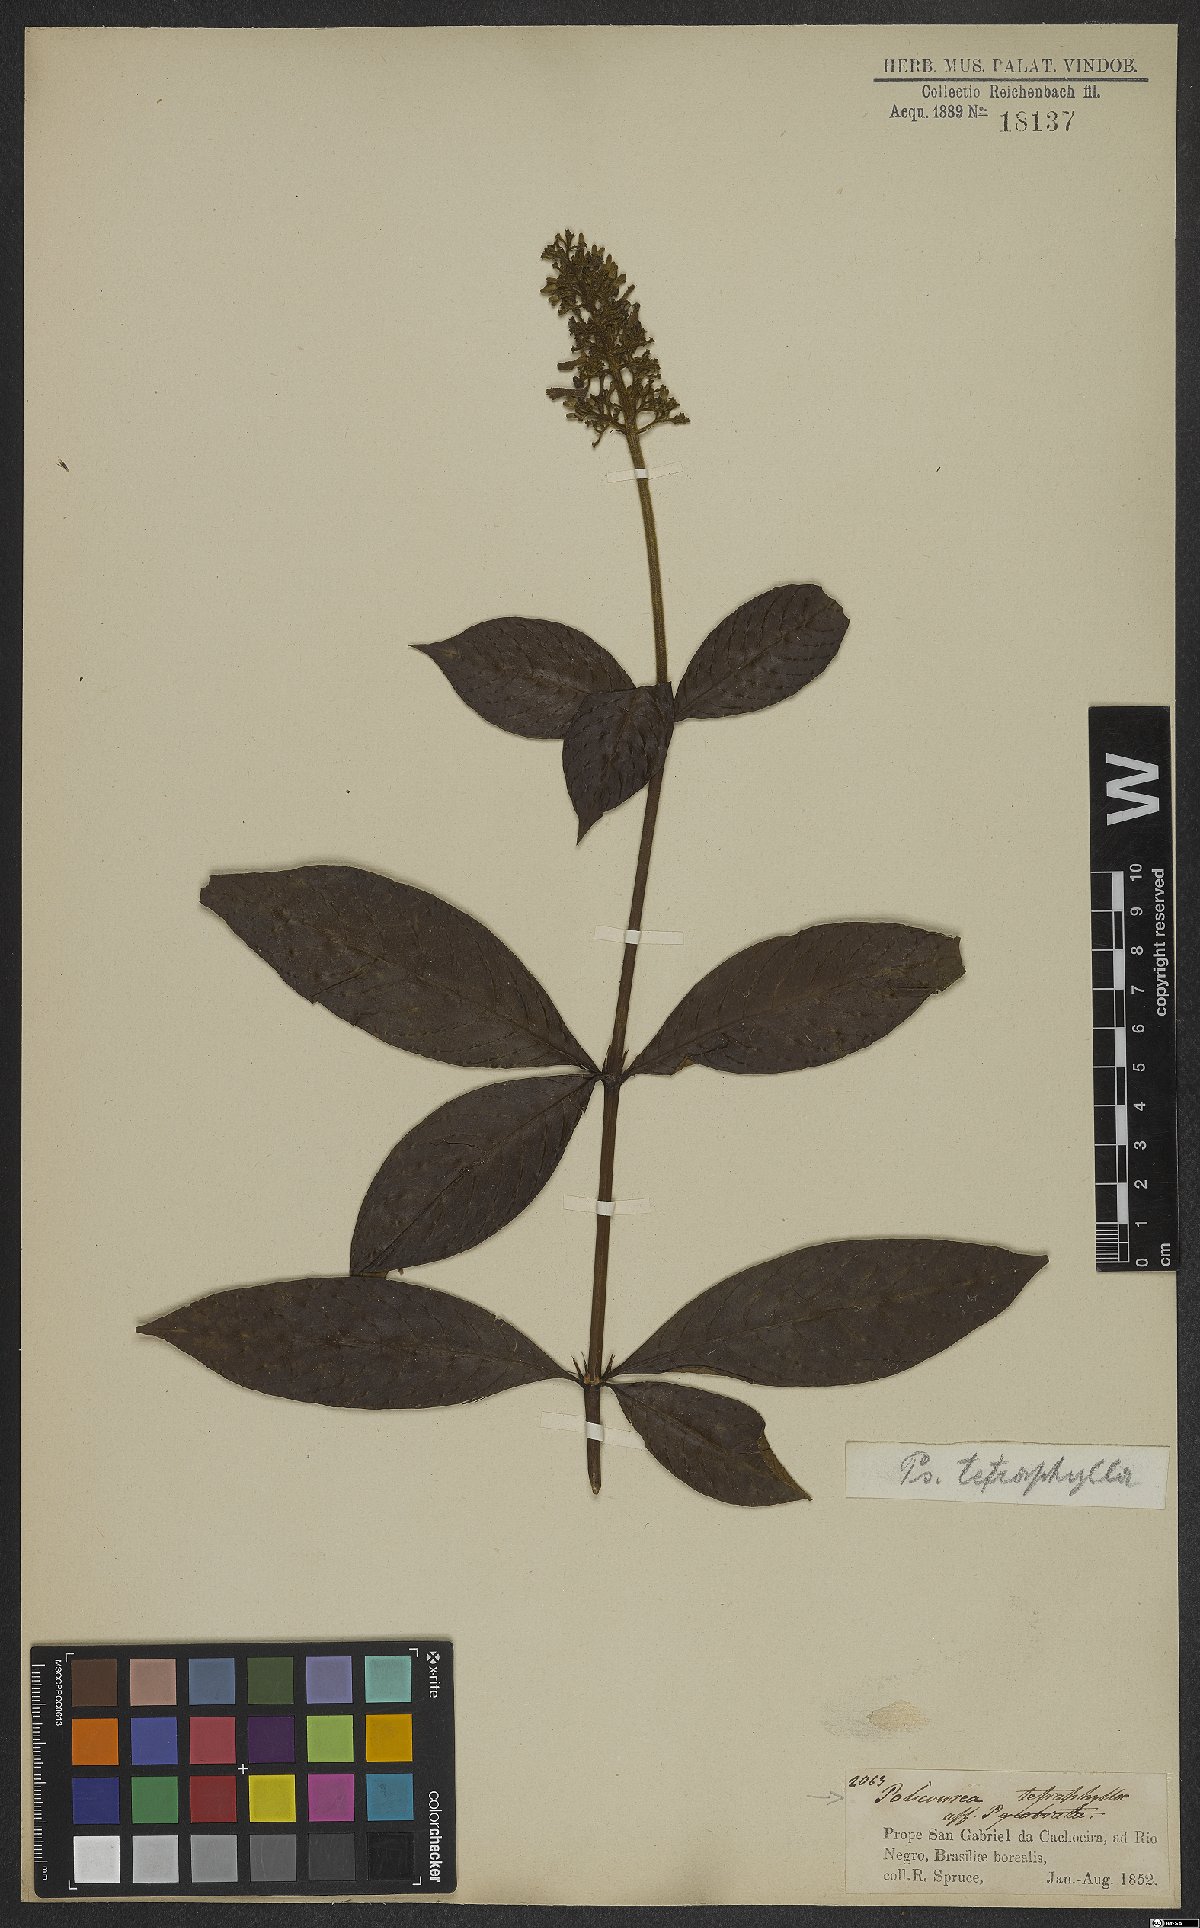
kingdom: Plantae
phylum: Tracheophyta
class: Magnoliopsida
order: Gentianales
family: Rubiaceae
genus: Palicourea
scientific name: Palicourea tetraphylla
